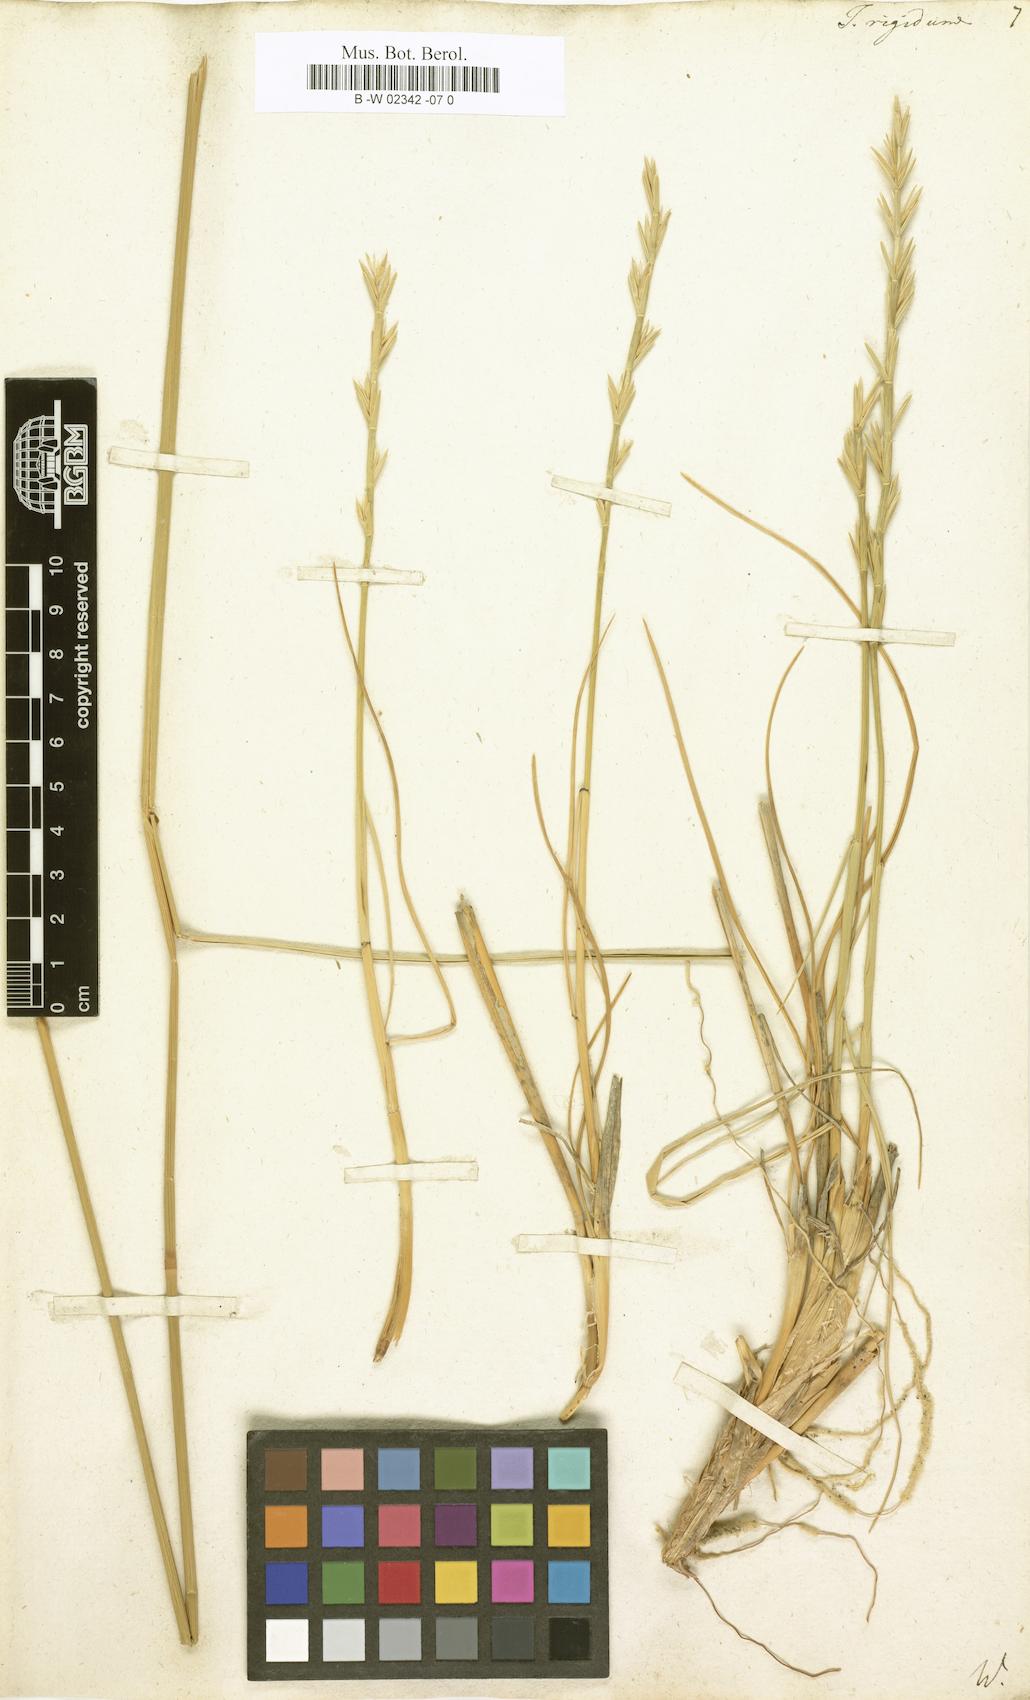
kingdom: Plantae
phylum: Tracheophyta
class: Liliopsida
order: Poales
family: Poaceae
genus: Thinopyrum
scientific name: Thinopyrum
